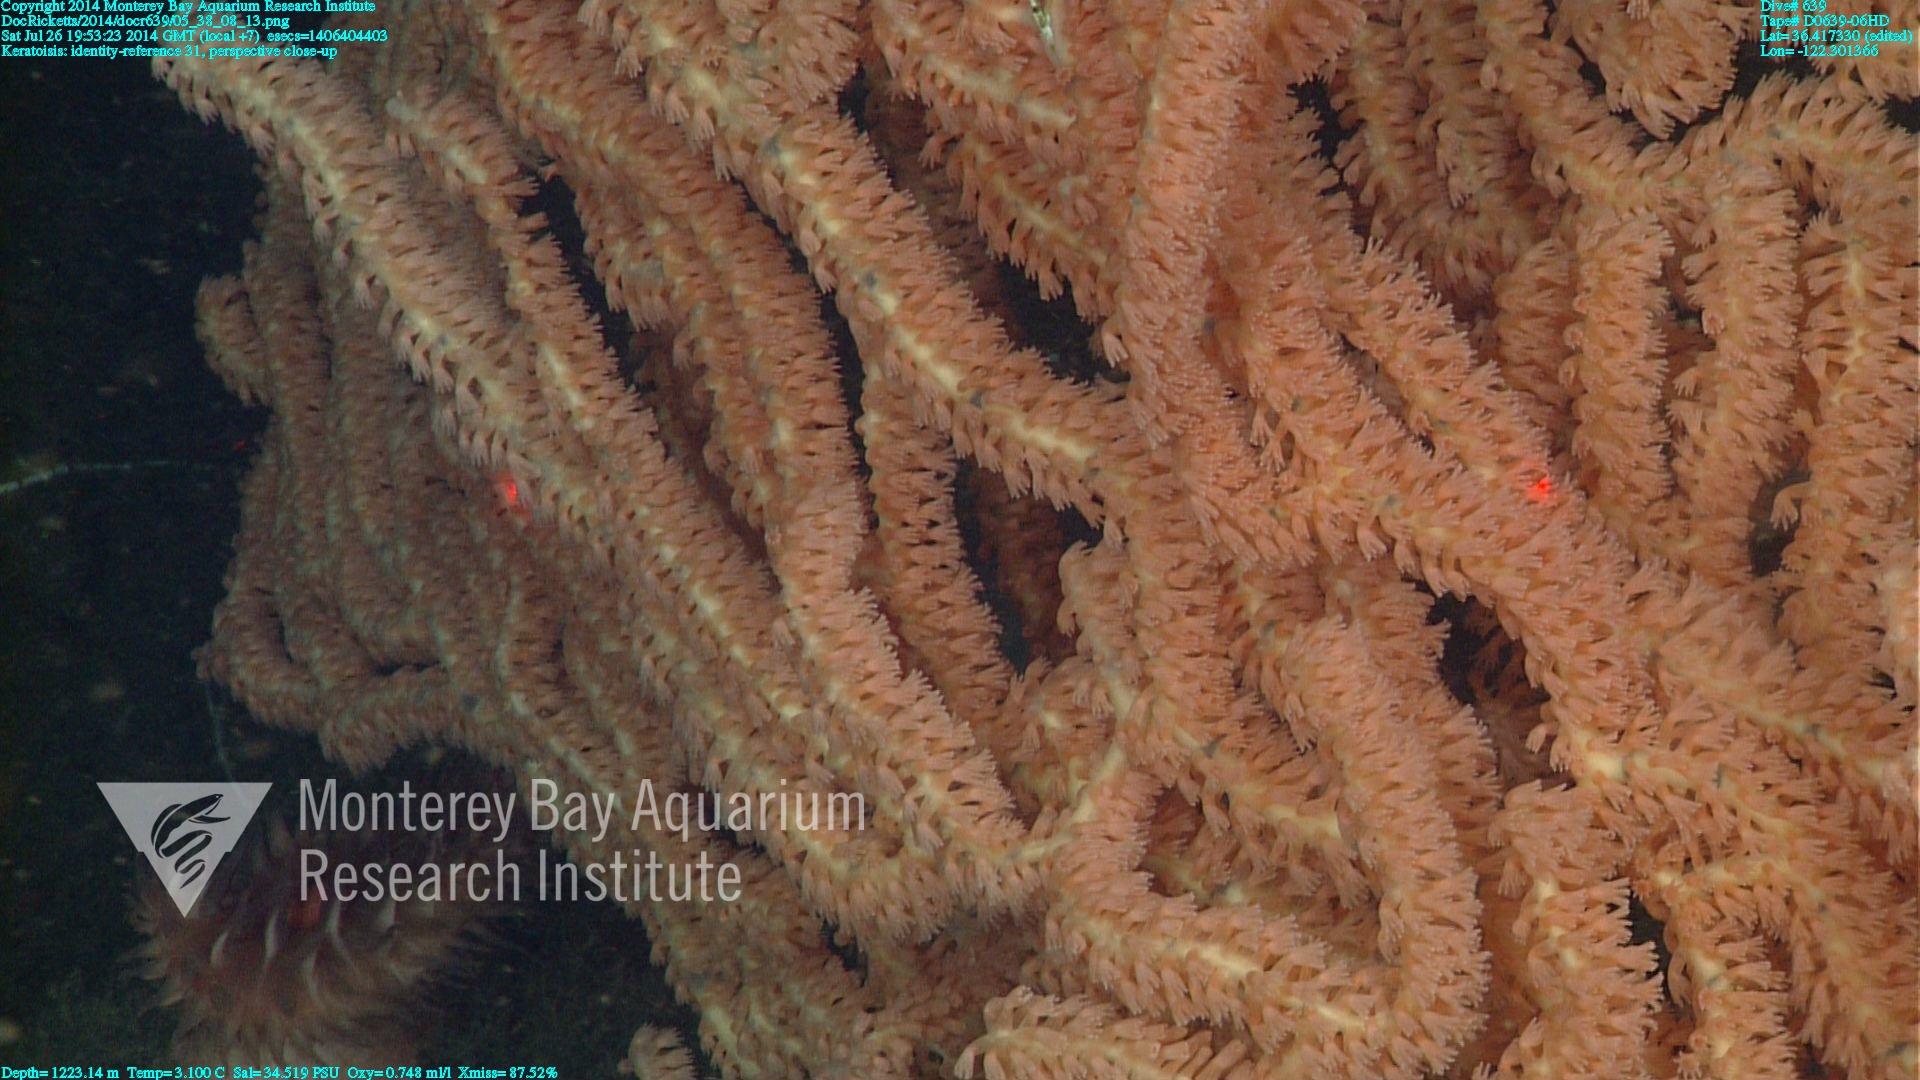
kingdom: Animalia
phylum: Cnidaria
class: Anthozoa
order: Scleralcyonacea
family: Keratoisididae
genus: Keratoisis
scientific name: Keratoisis
